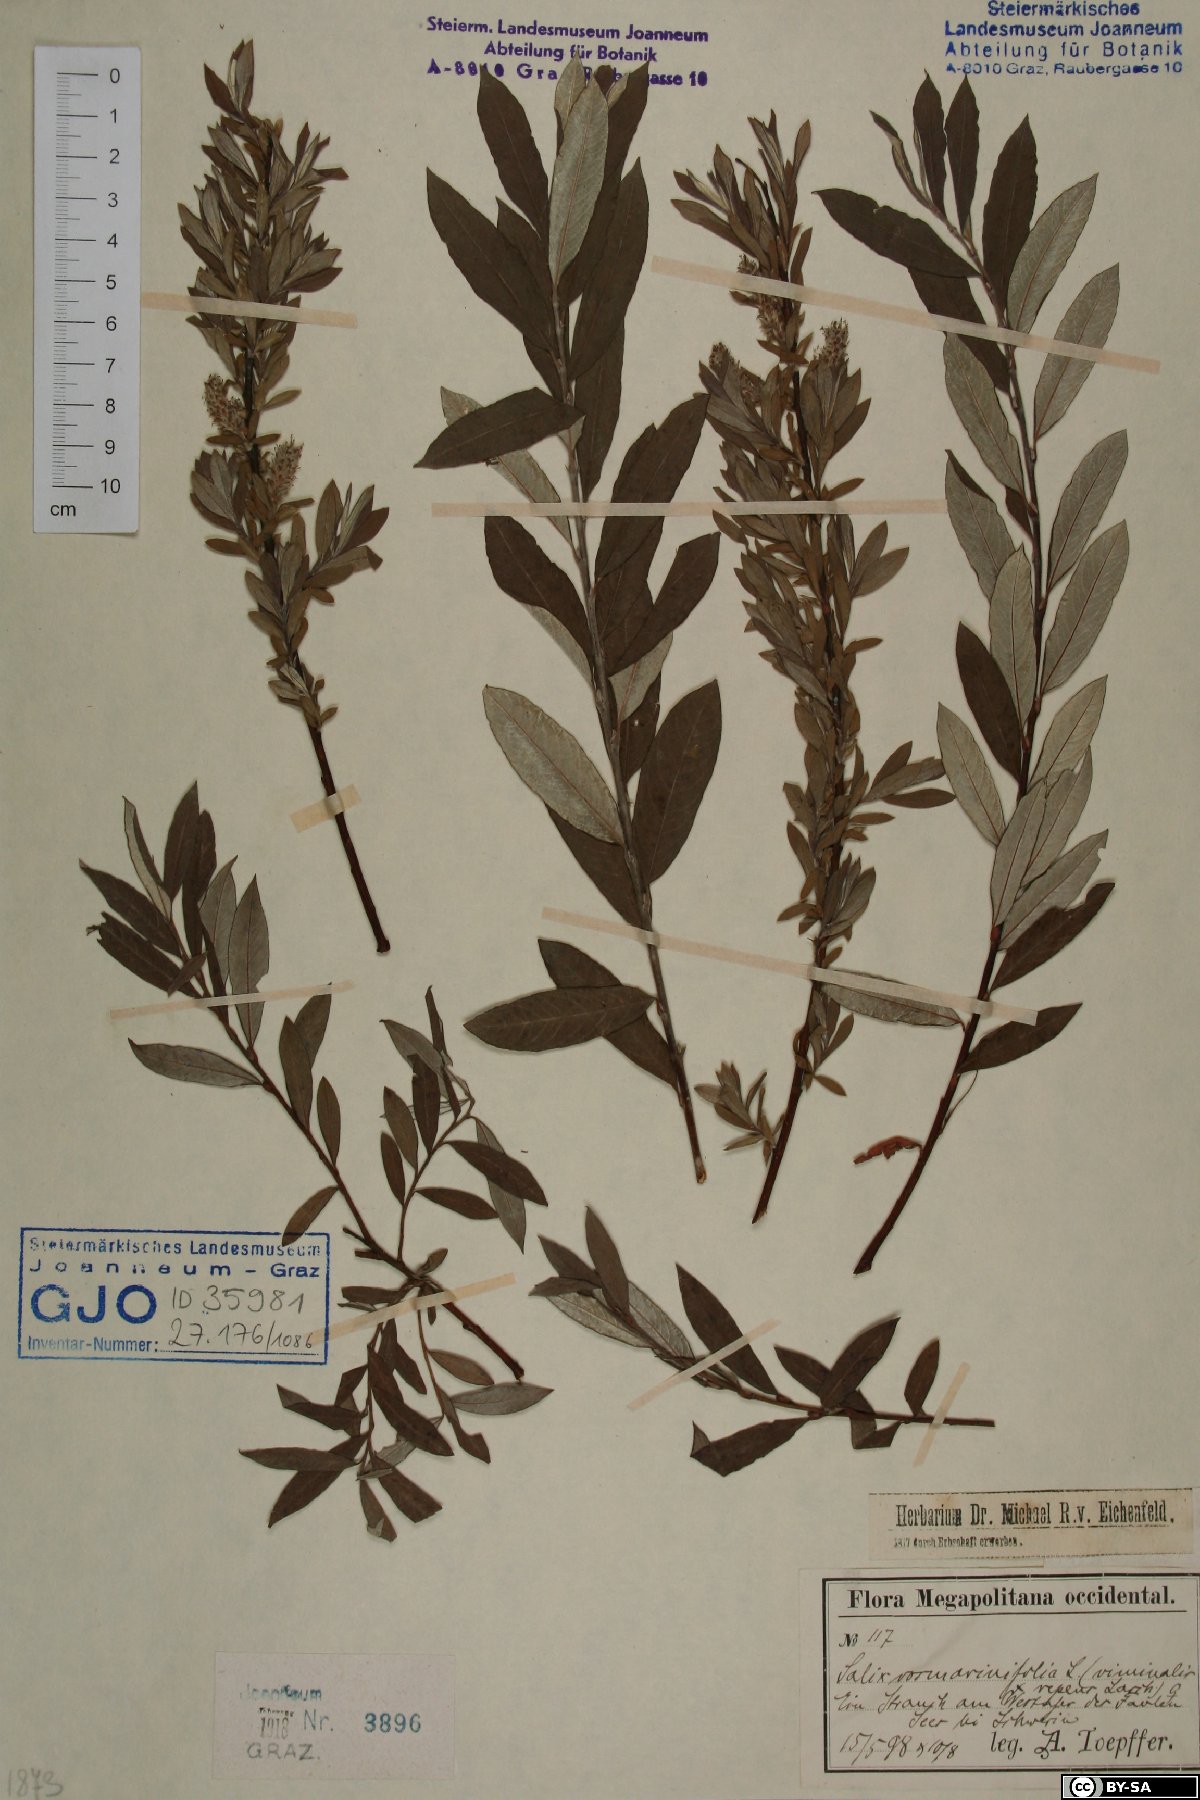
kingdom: Plantae
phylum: Tracheophyta
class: Magnoliopsida
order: Malpighiales
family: Salicaceae
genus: Salix
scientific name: Salix rosmarinifolia
